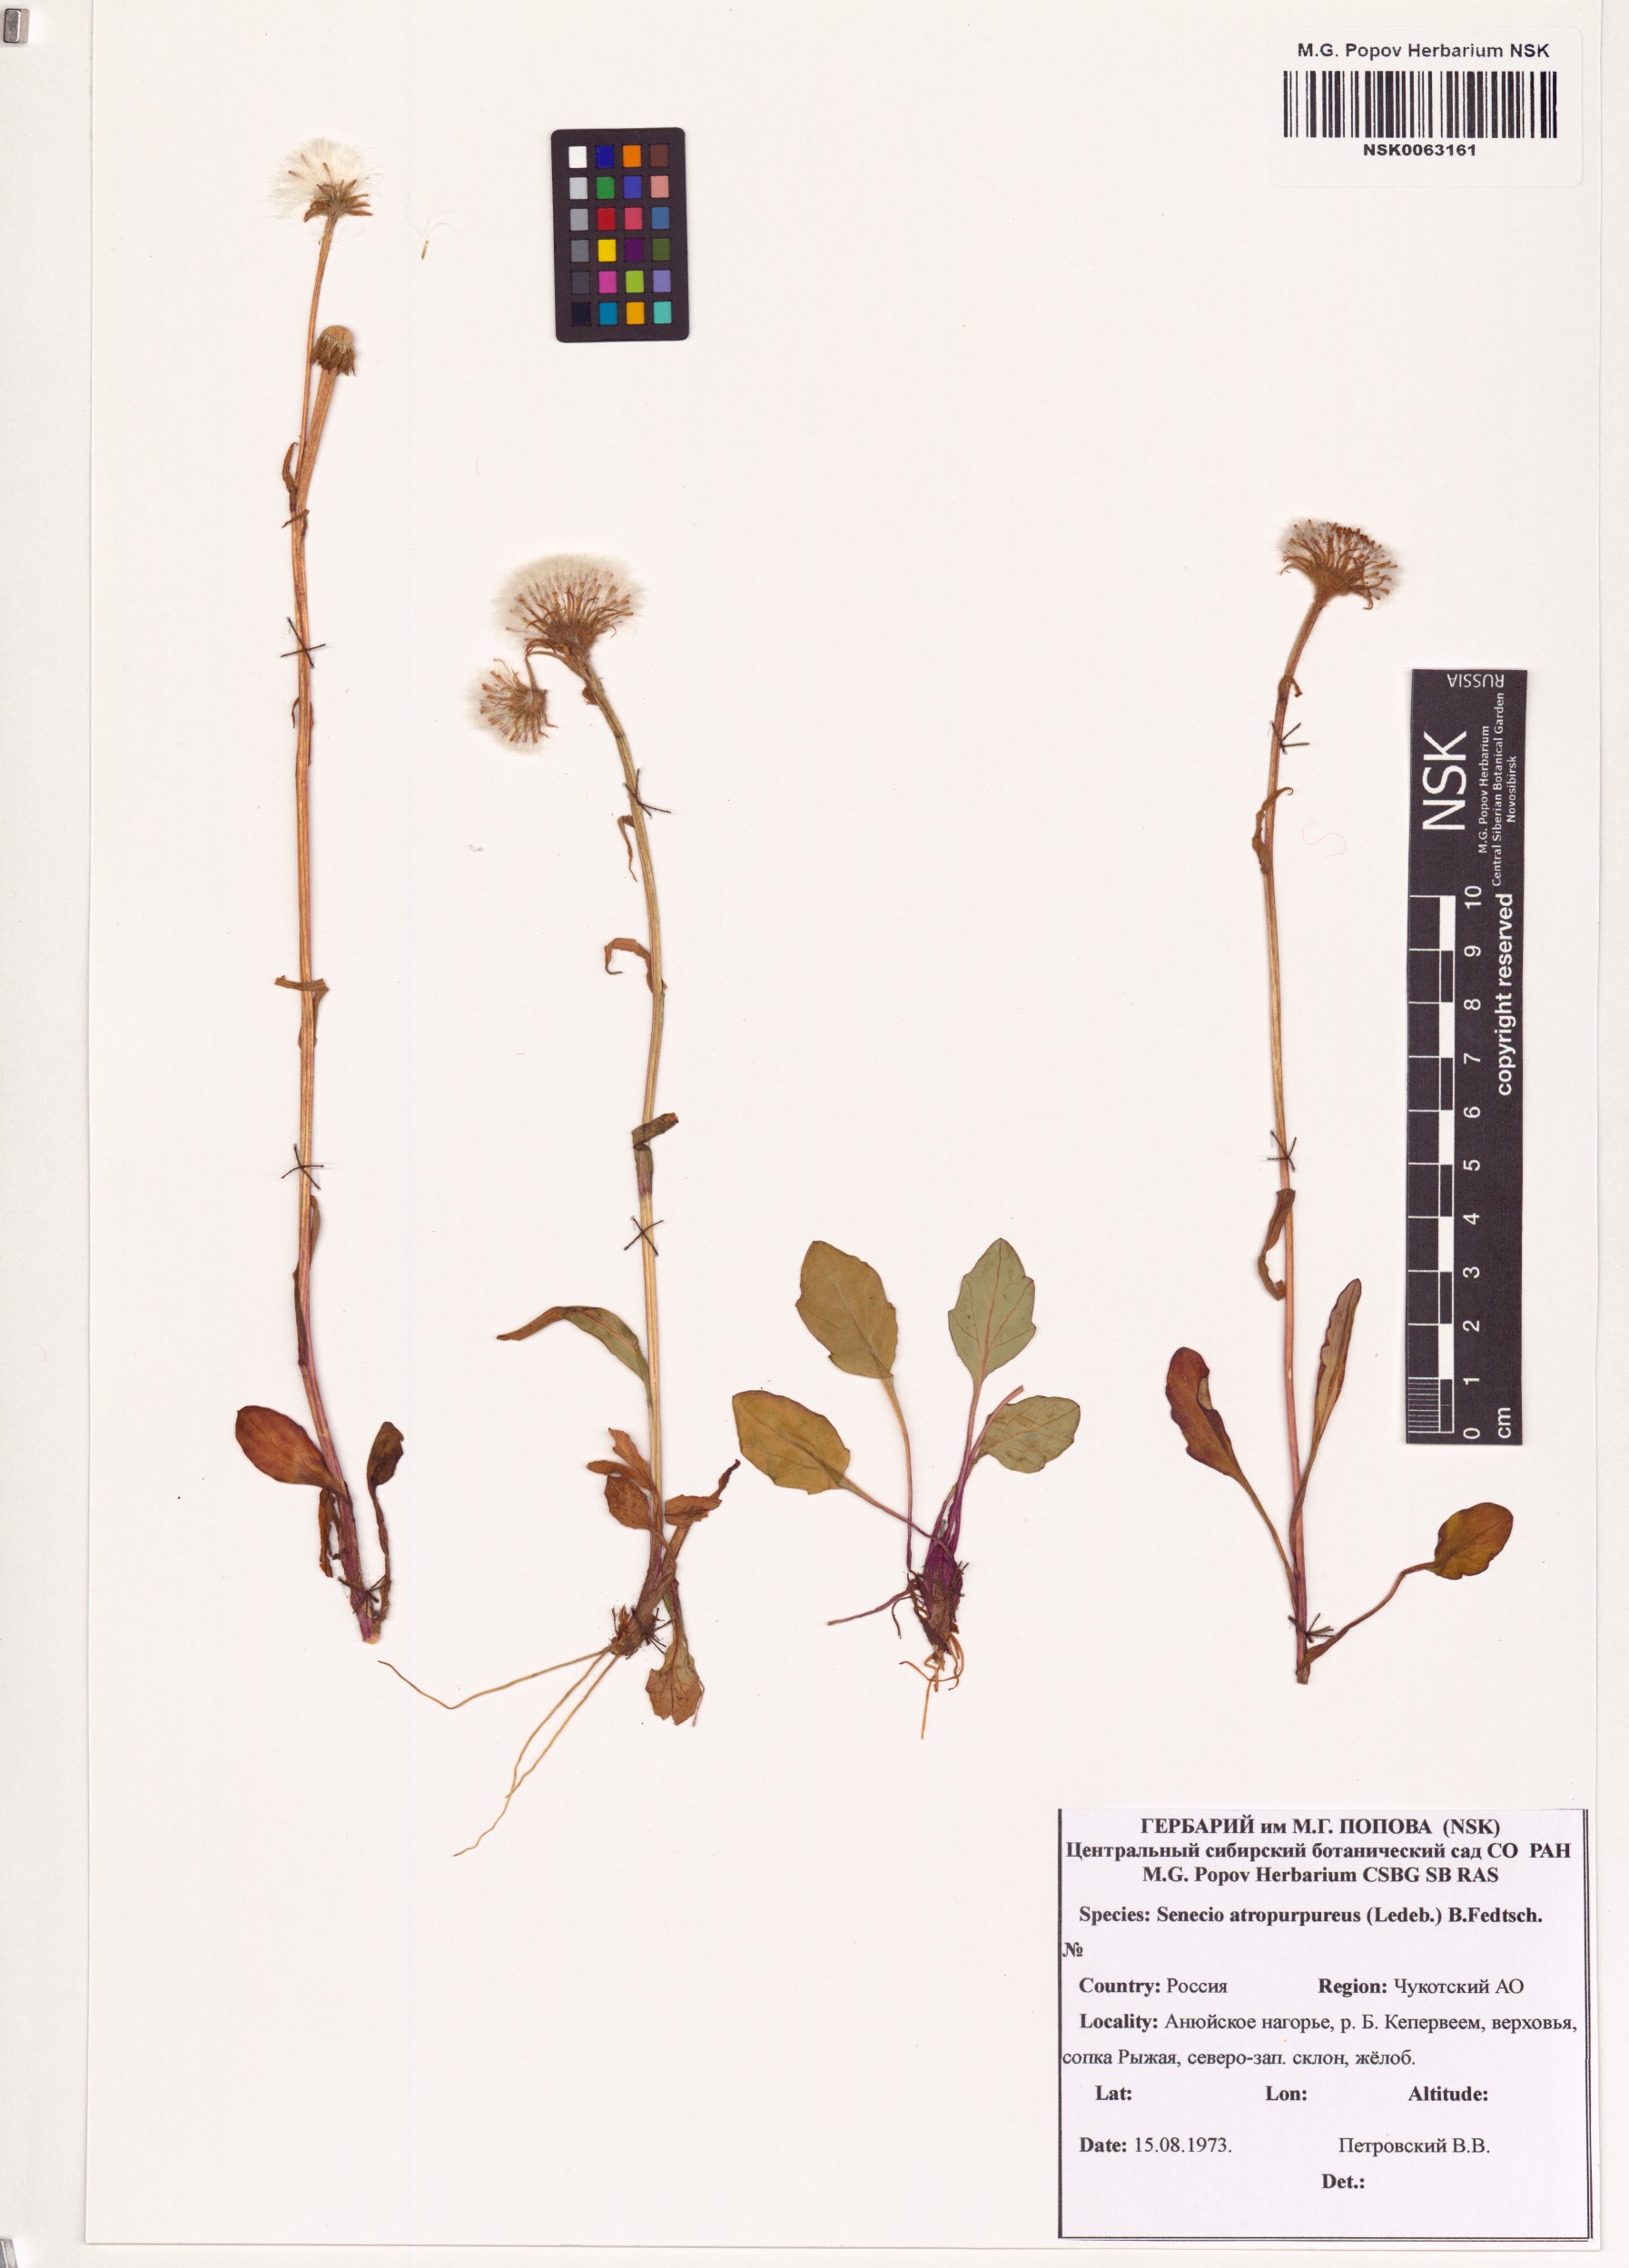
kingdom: Plantae
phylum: Tracheophyta
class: Magnoliopsida
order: Asterales
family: Asteraceae
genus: Tephroseris
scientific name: Tephroseris integrifolia
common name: Field fleawort
